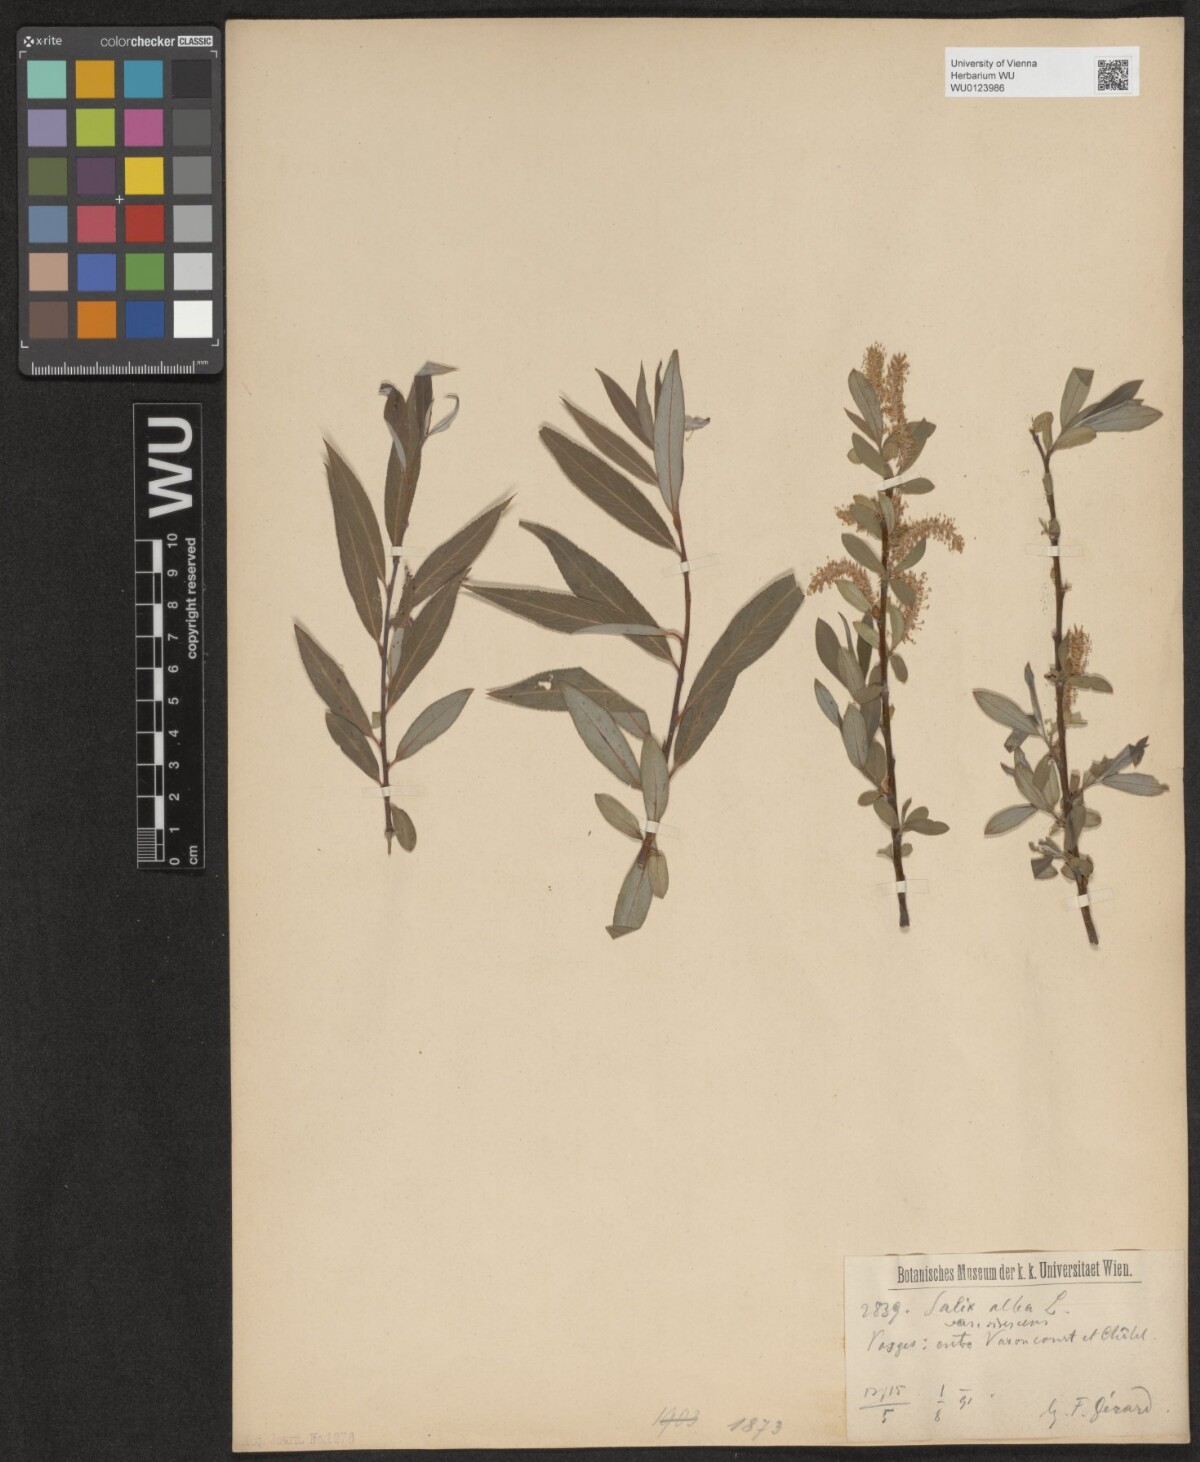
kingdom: Plantae
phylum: Tracheophyta
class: Magnoliopsida
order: Malpighiales
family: Salicaceae
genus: Salix
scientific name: Salix alba
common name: White willow
